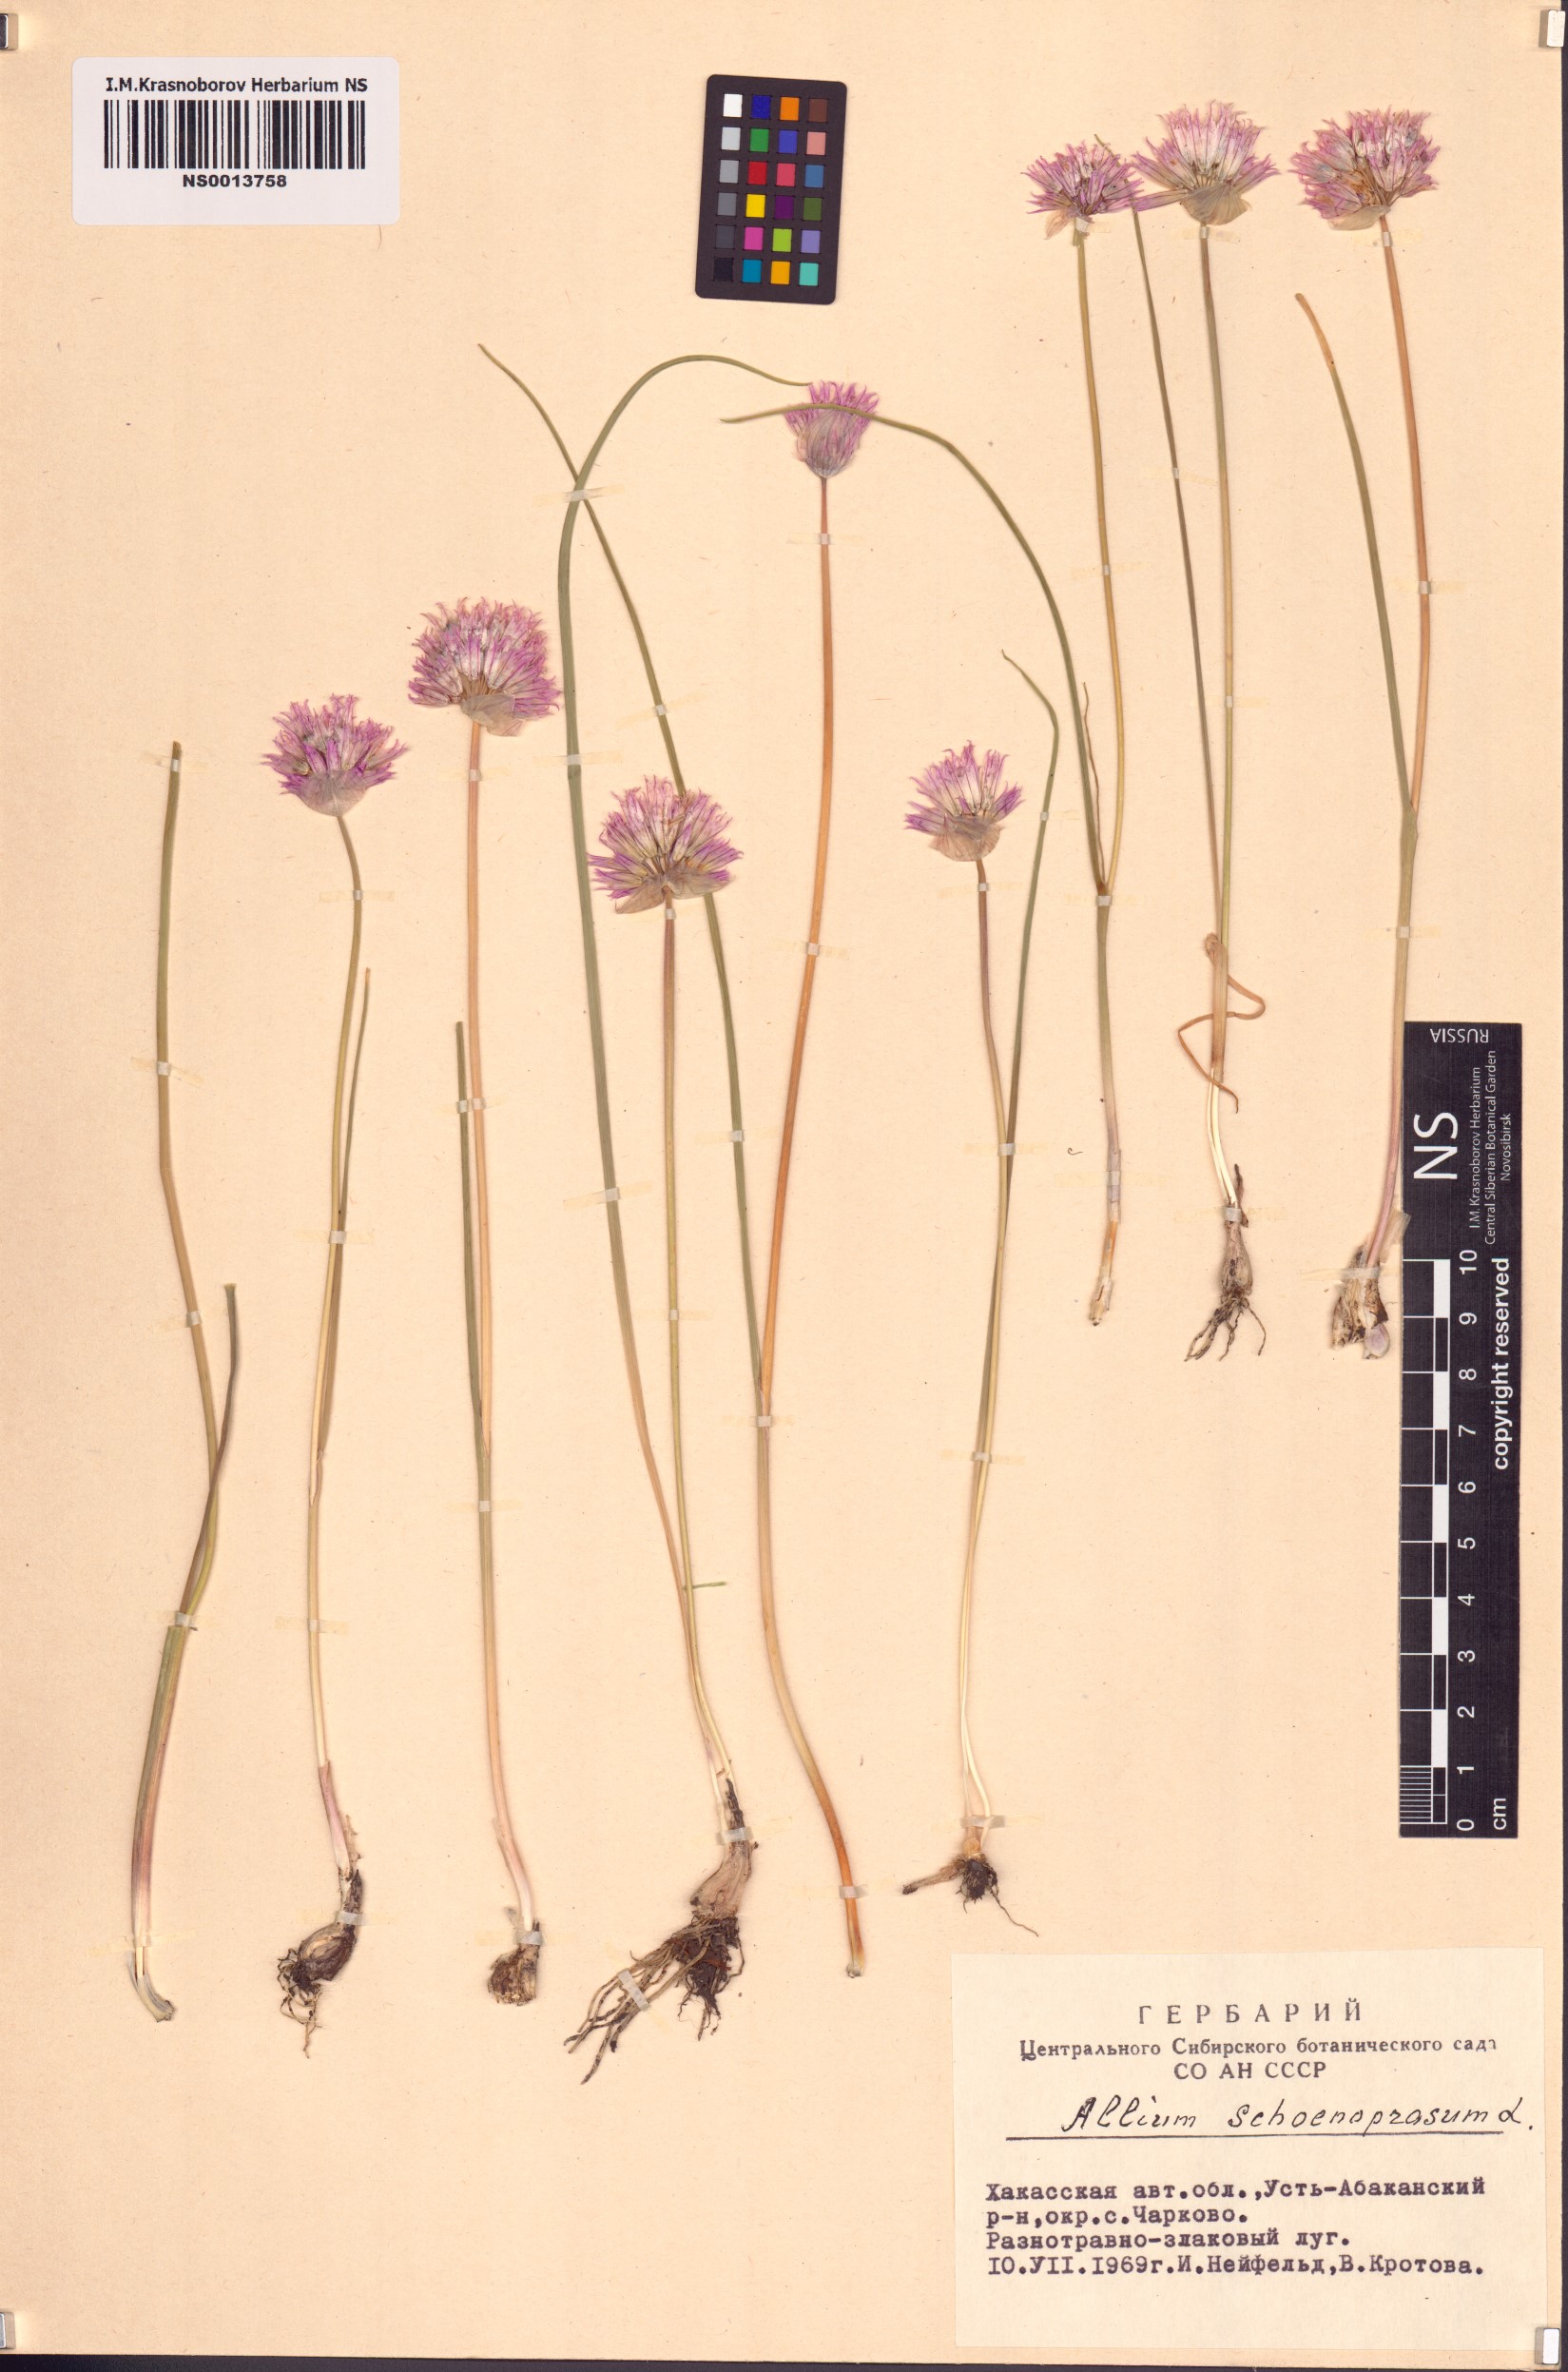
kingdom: Plantae
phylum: Tracheophyta
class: Liliopsida
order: Asparagales
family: Amaryllidaceae
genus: Allium
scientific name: Allium schoenoprasum
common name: Chives
